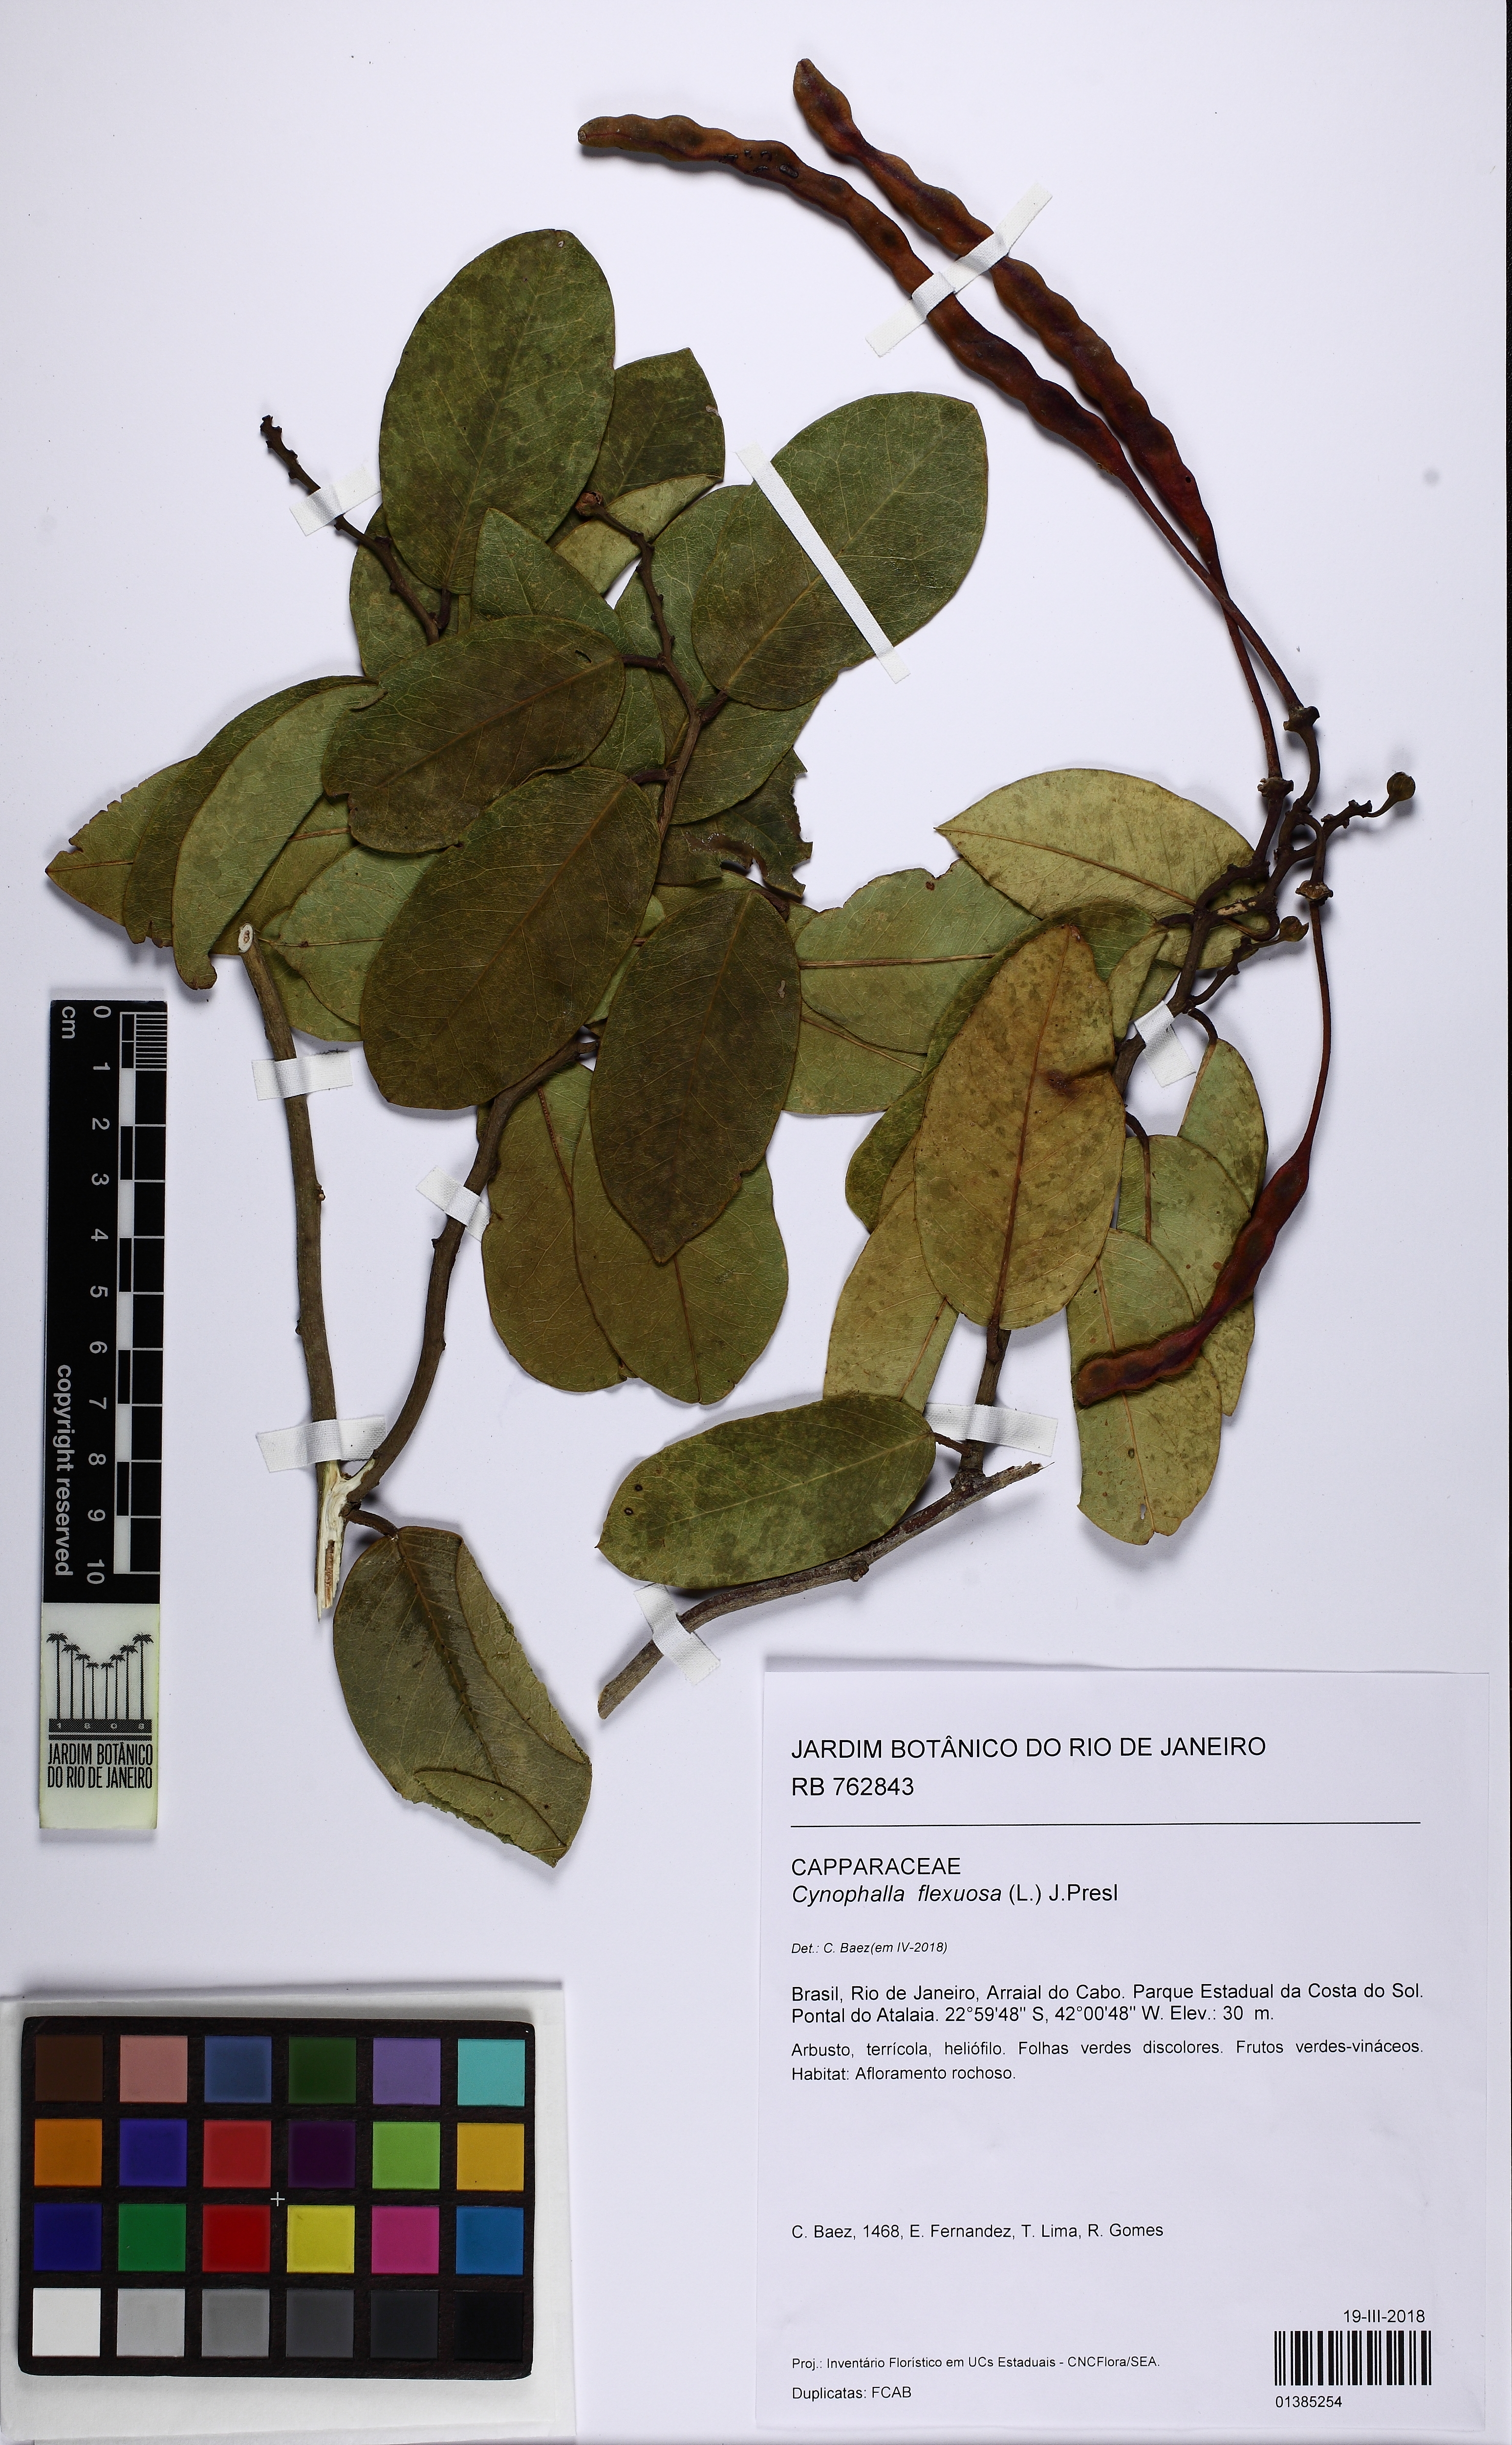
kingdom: Plantae
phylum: Tracheophyta
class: Magnoliopsida
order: Brassicales
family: Capparaceae
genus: Cynophalla
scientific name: Cynophalla flexuosa
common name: Capertree
